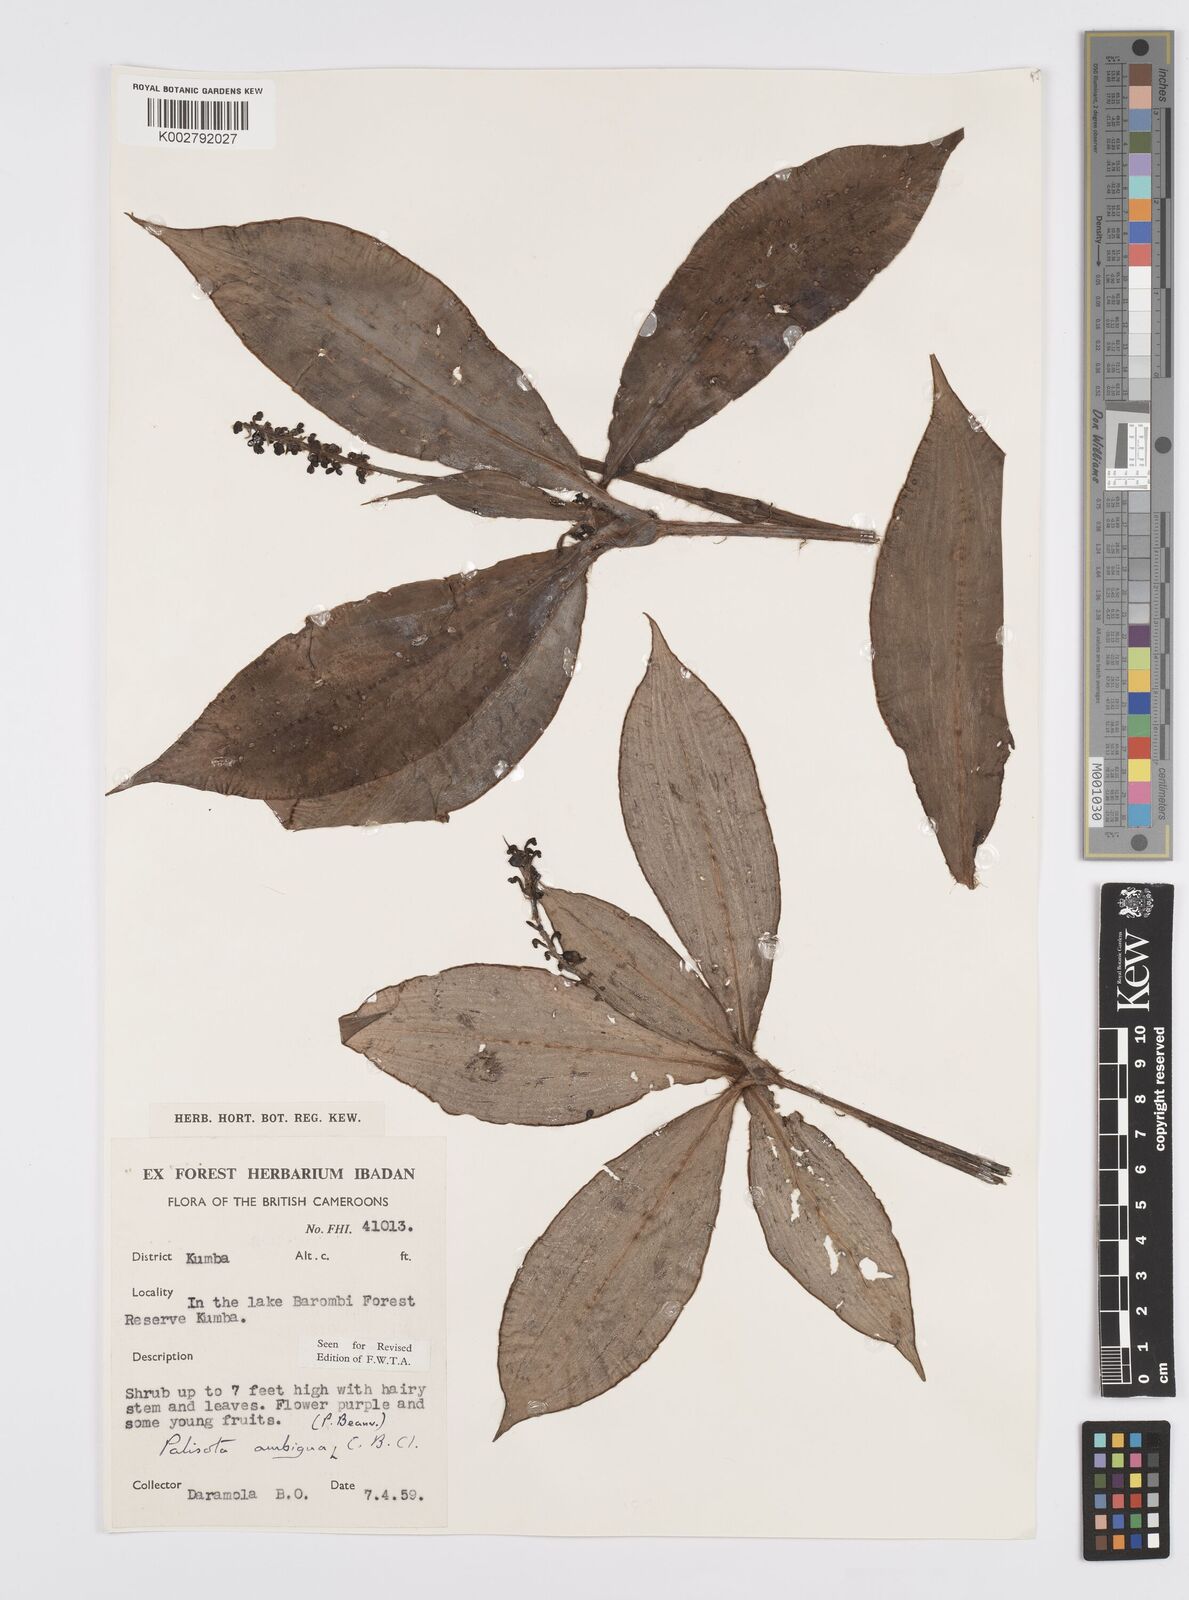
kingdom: Plantae
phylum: Tracheophyta
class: Liliopsida
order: Commelinales
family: Commelinaceae
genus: Palisota
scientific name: Palisota ambigua
